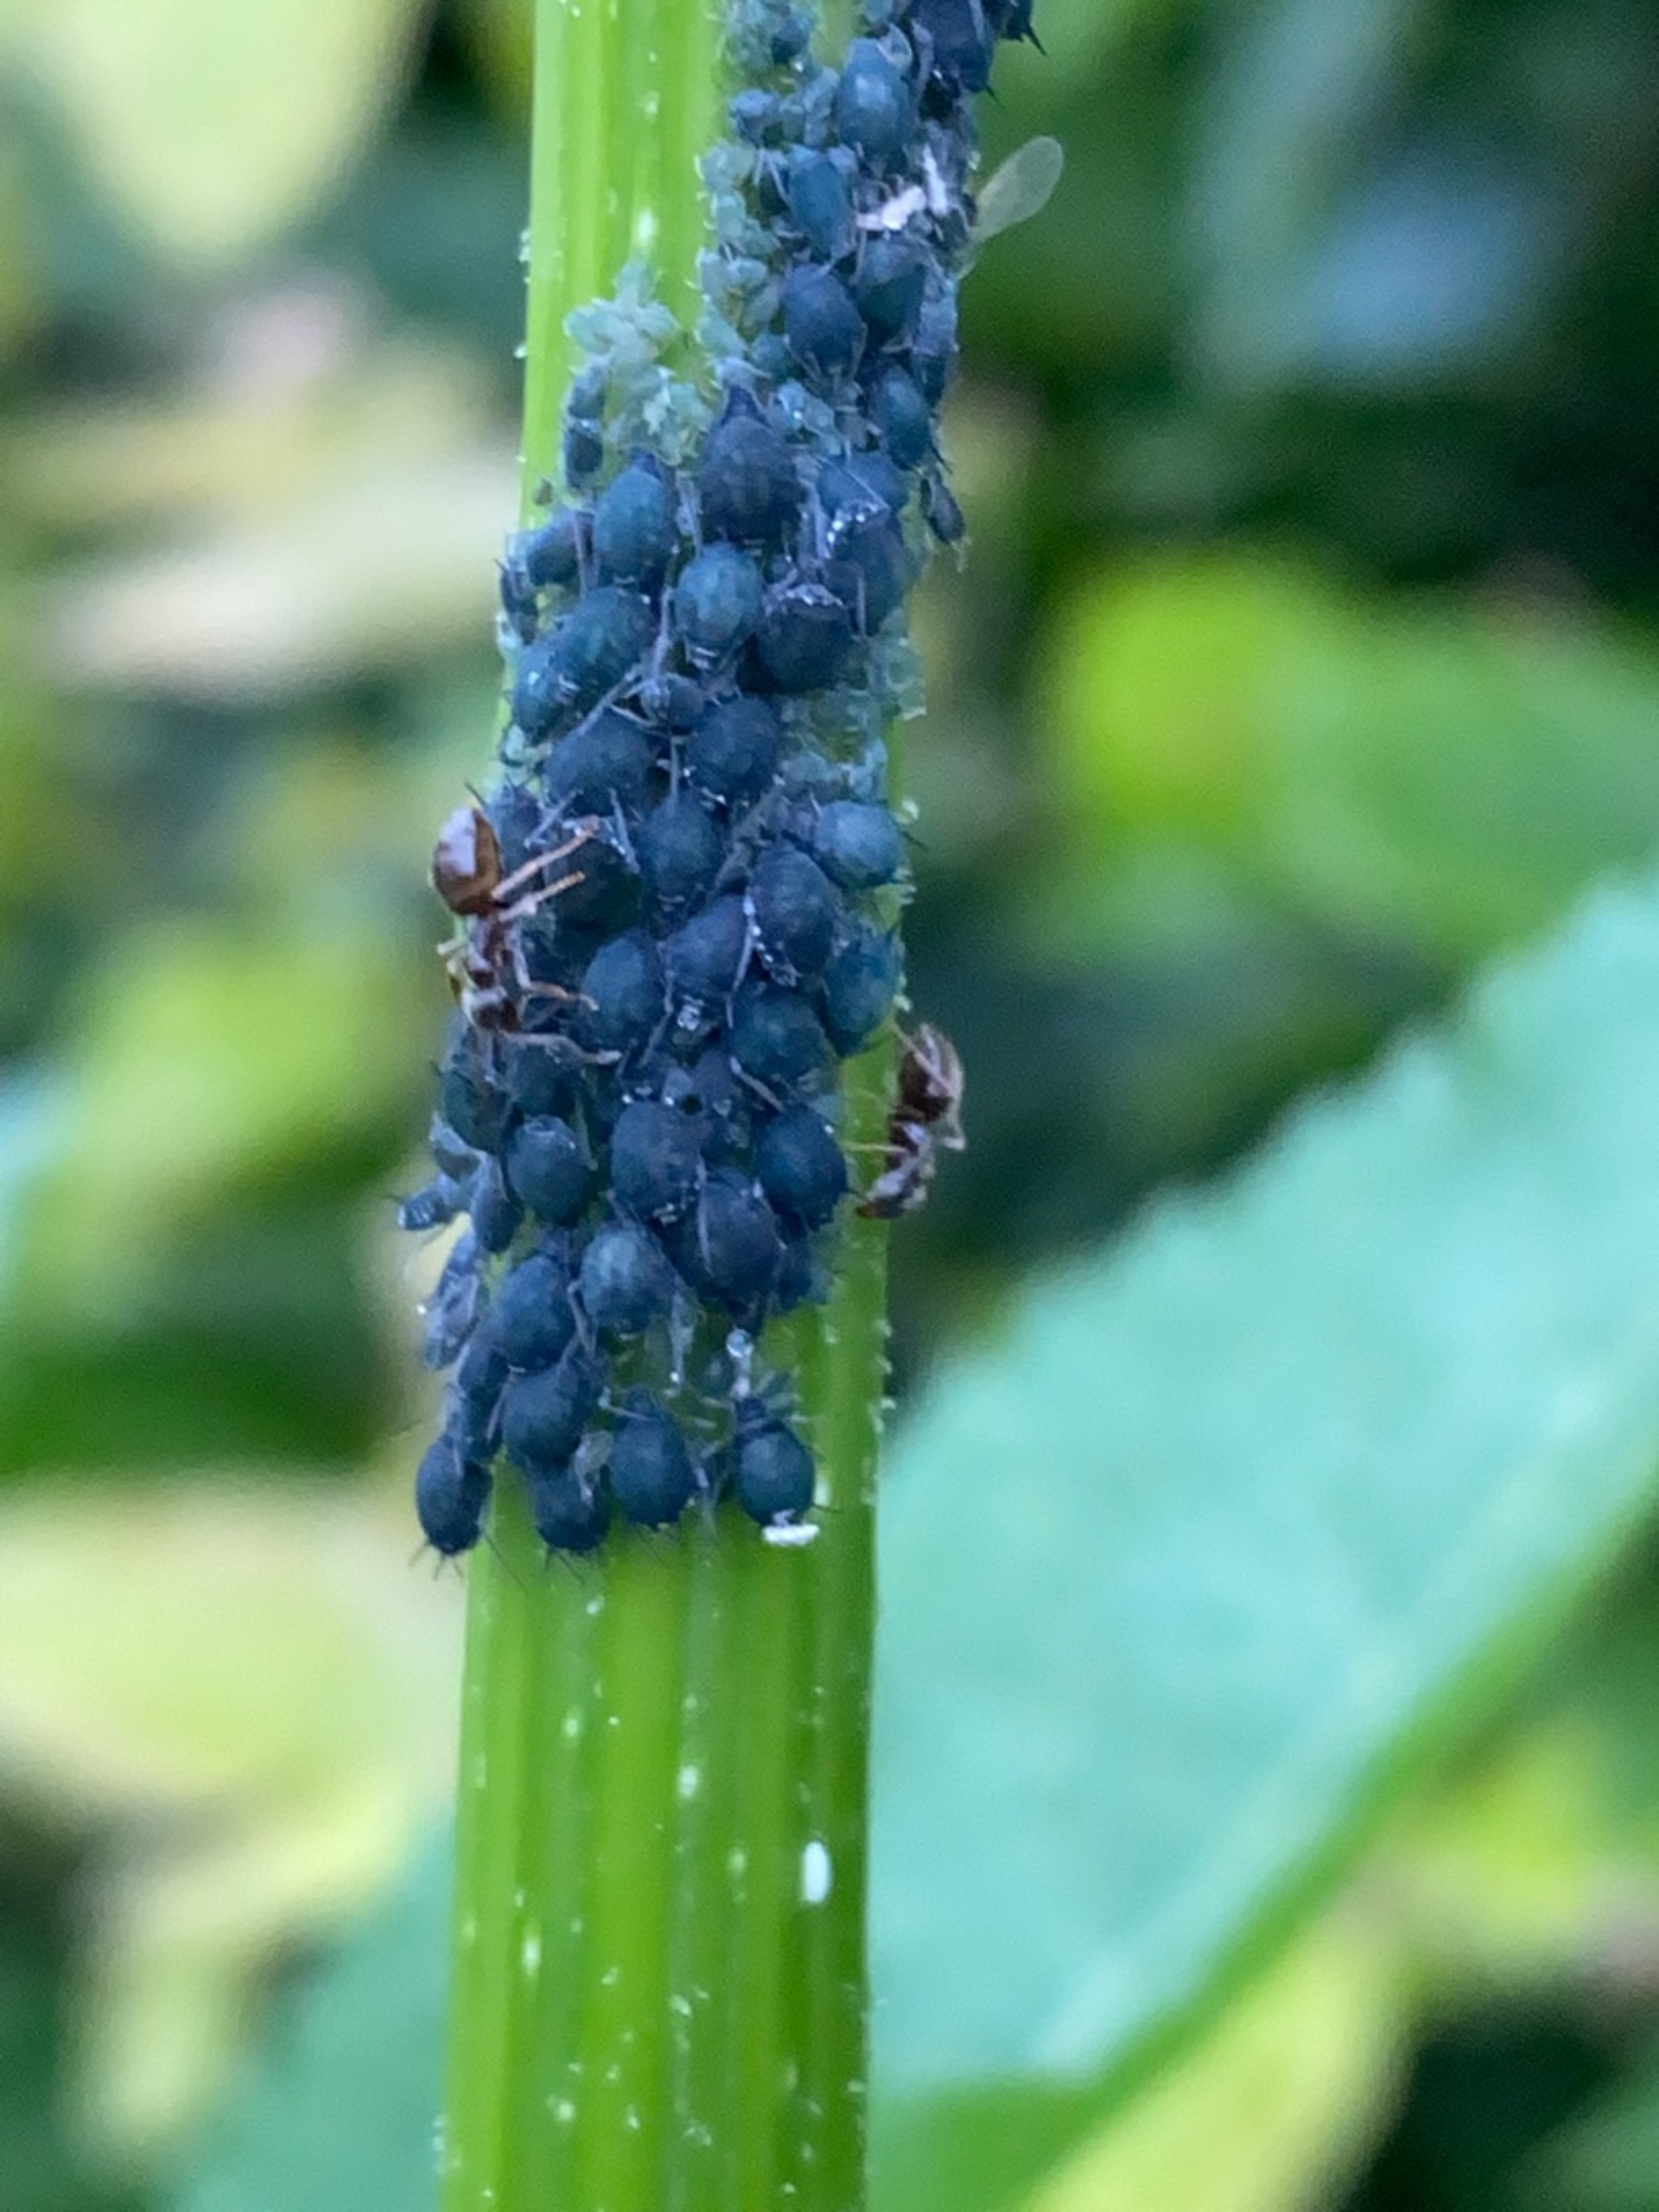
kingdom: Animalia
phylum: Arthropoda
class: Insecta
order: Hemiptera
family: Aphididae
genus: Aphis
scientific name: Aphis sambuci
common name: Hyldebladlus
